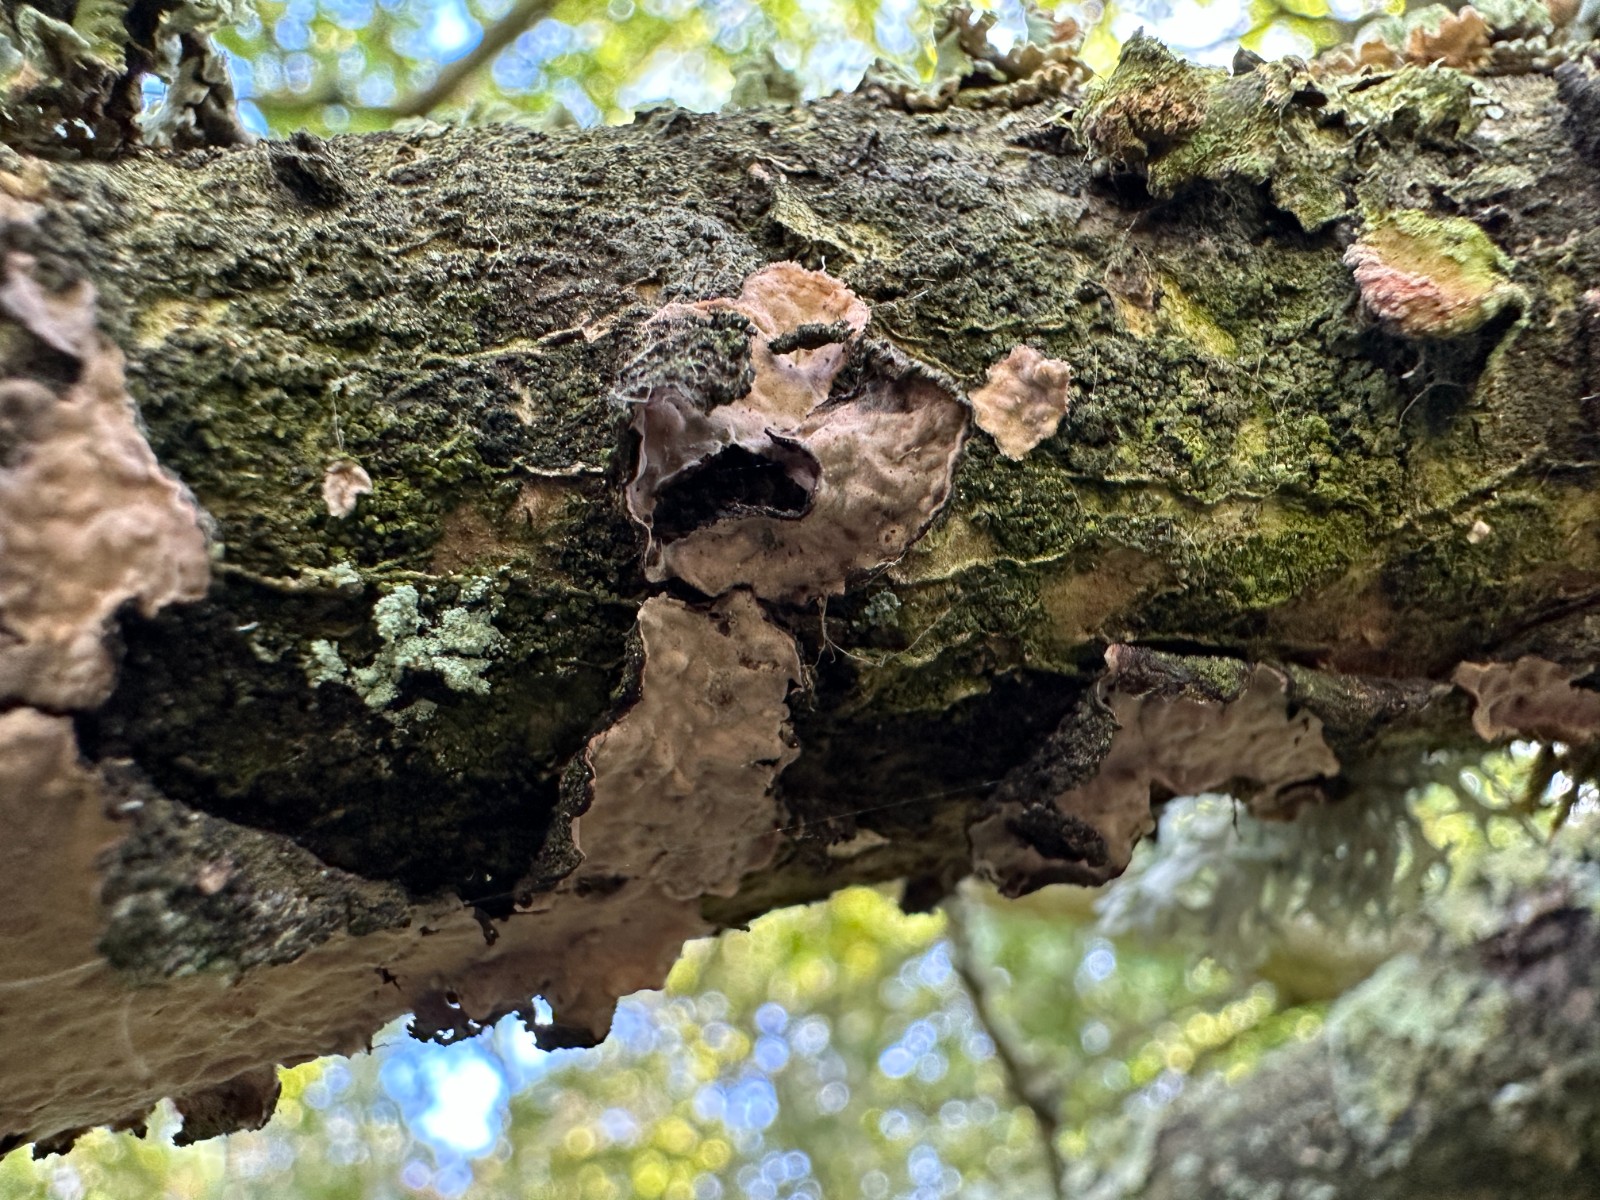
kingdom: Fungi
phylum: Basidiomycota
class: Agaricomycetes
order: Russulales
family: Peniophoraceae
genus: Peniophora
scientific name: Peniophora quercina
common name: ege-voksskind
